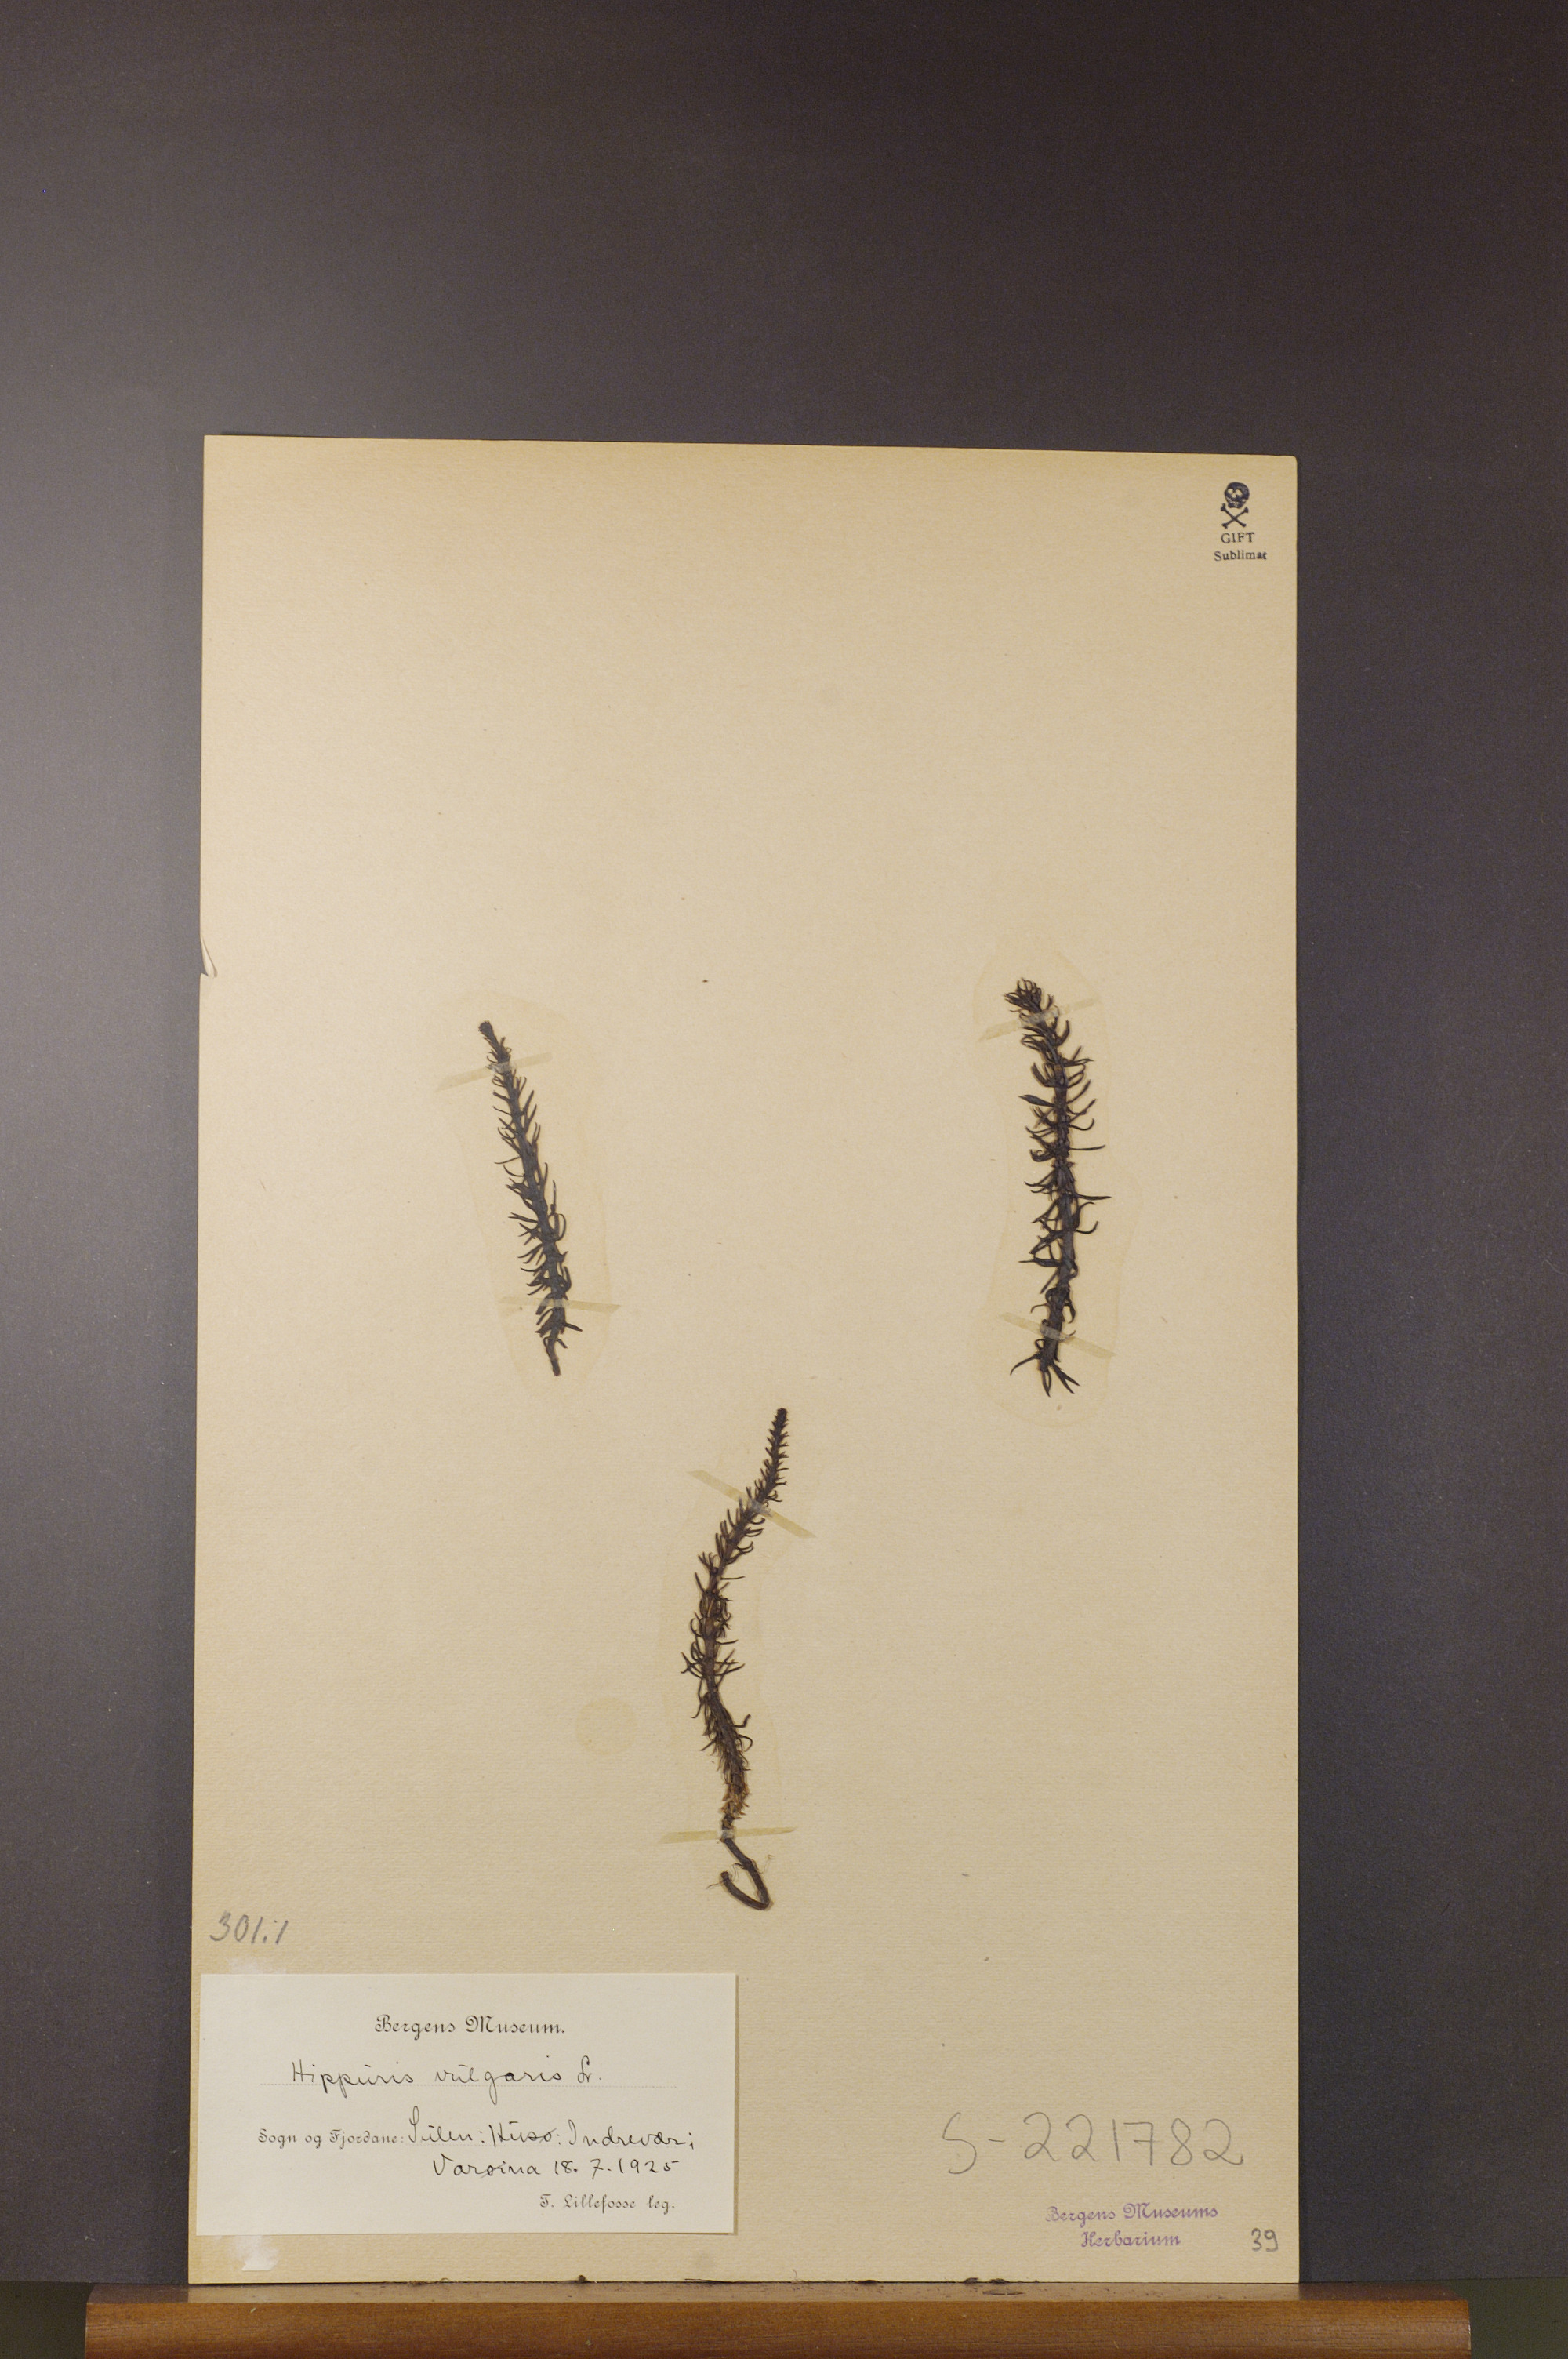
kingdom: Plantae
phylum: Tracheophyta
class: Magnoliopsida
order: Lamiales
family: Plantaginaceae
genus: Hippuris
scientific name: Hippuris vulgaris
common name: Mare's-tail
